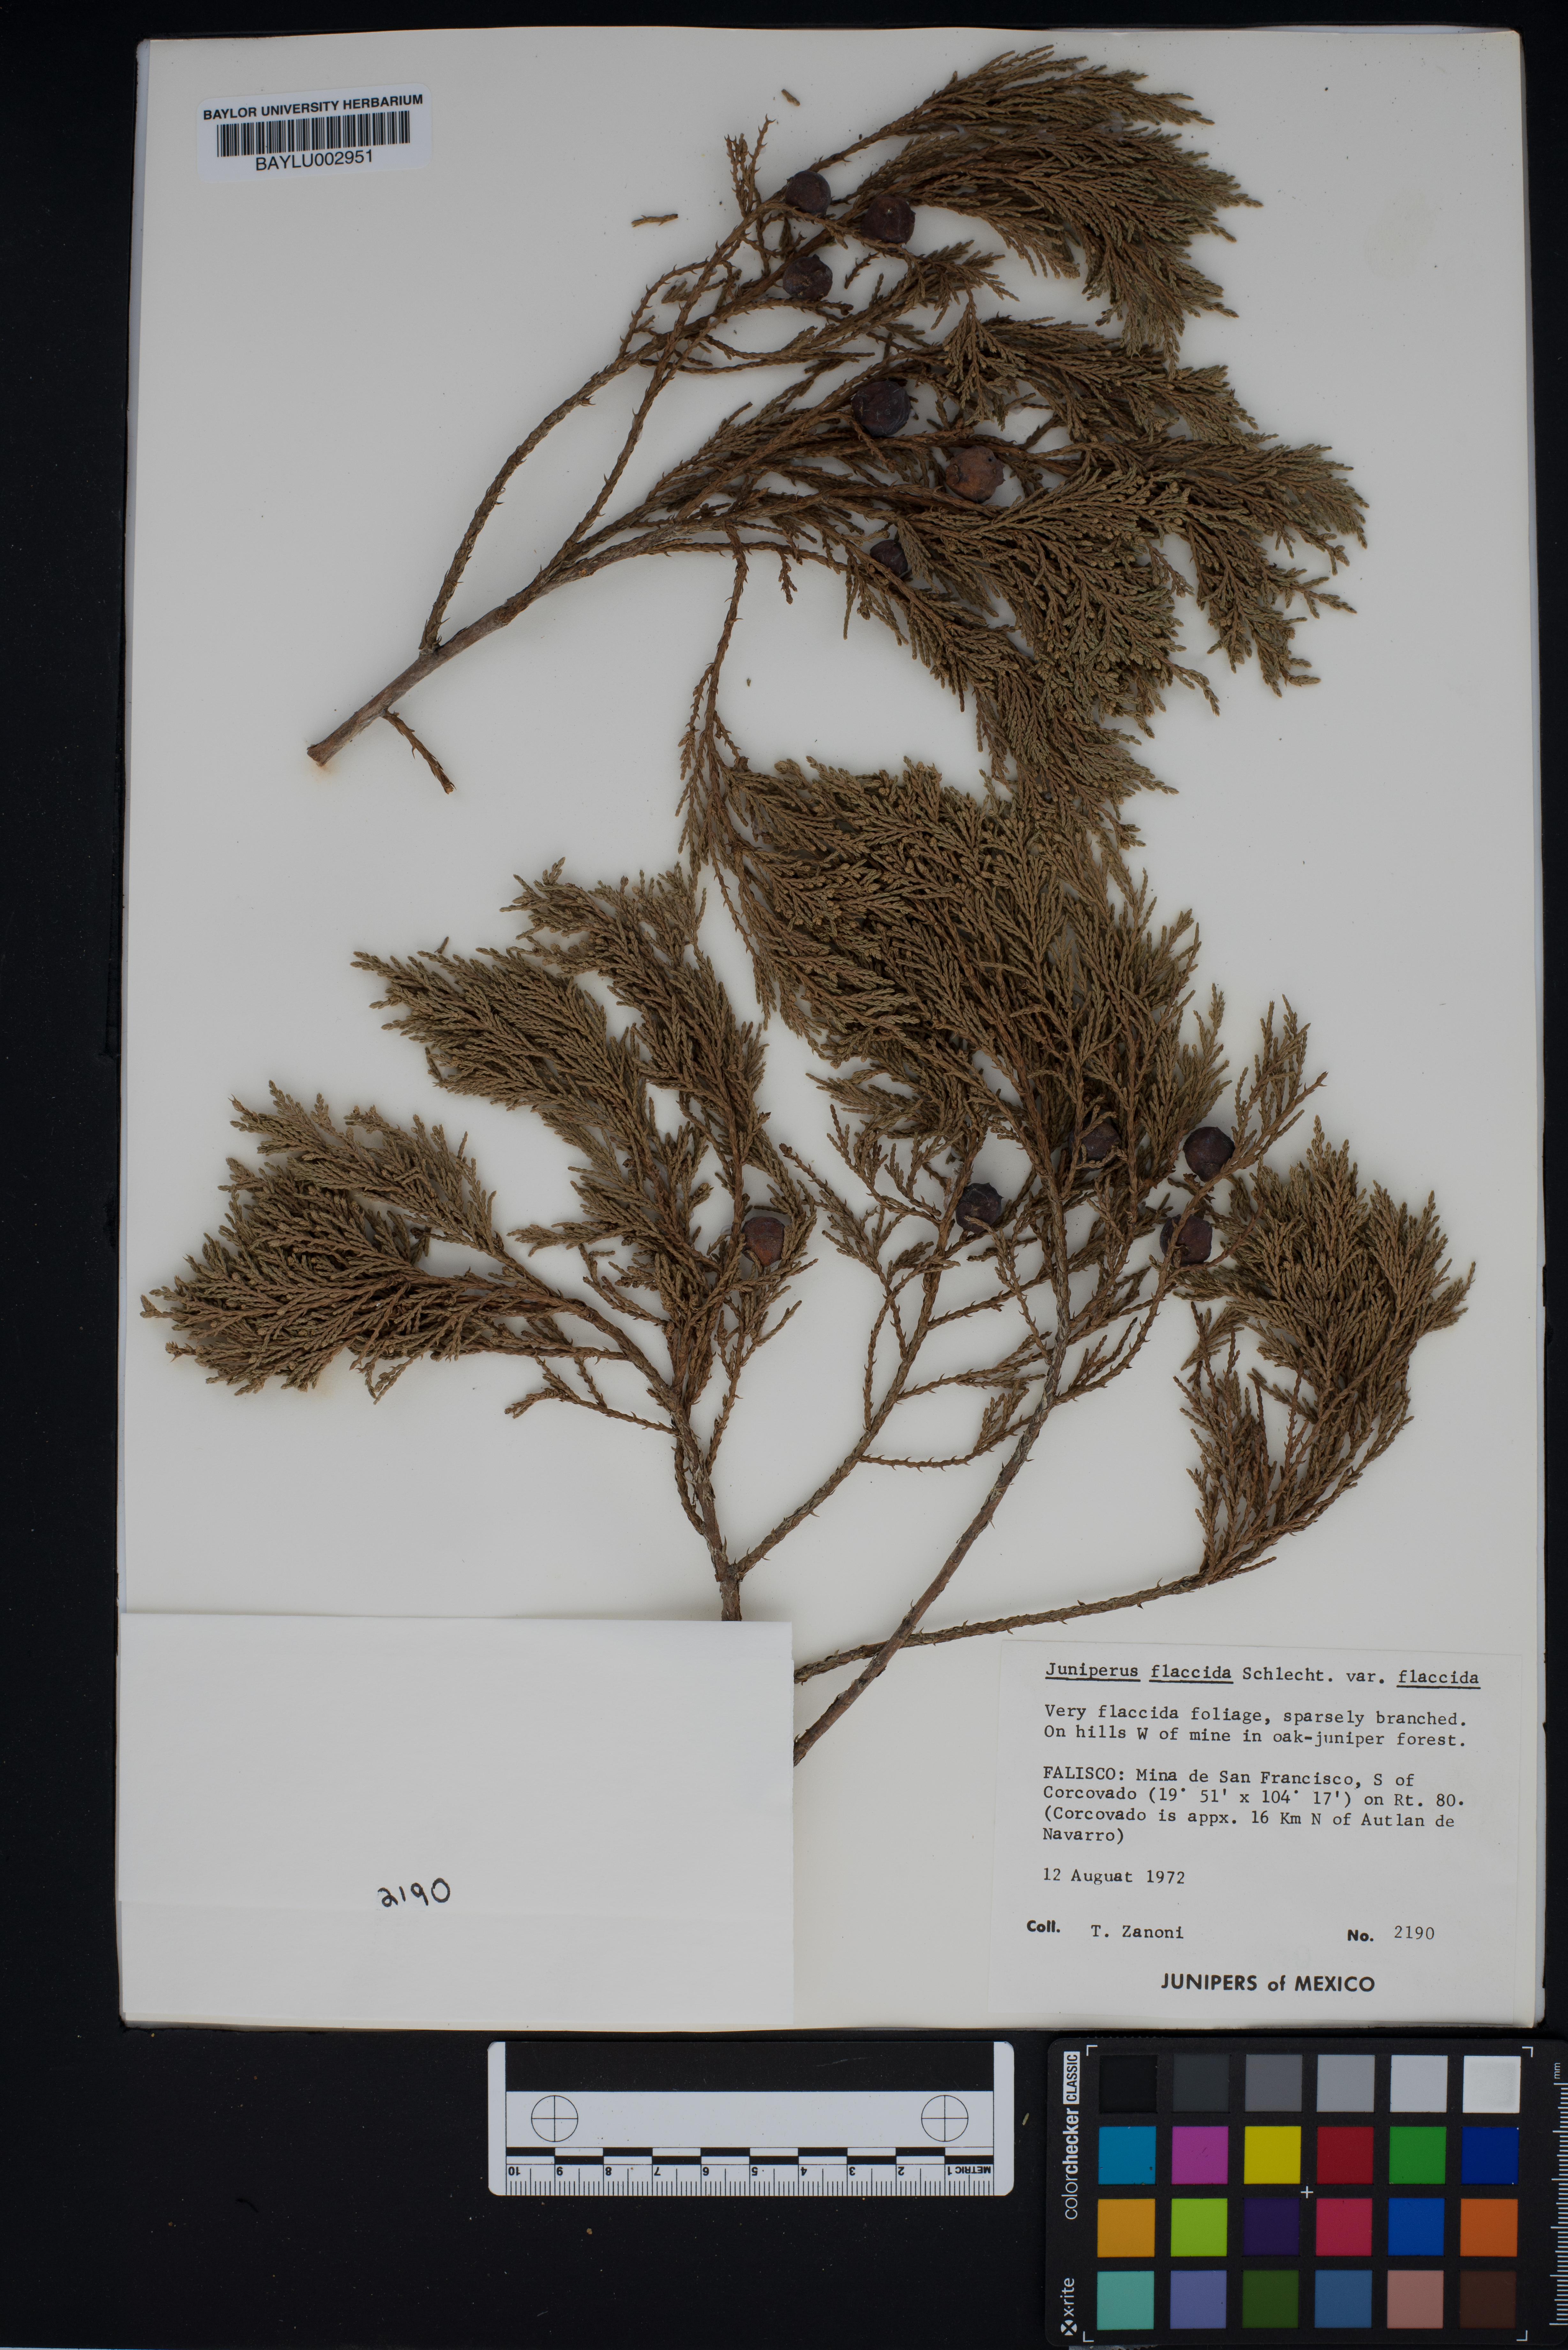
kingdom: Plantae
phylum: Tracheophyta
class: Pinopsida
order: Pinales
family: Cupressaceae
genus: Juniperus
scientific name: Juniperus flaccida
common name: Drooping juniper
